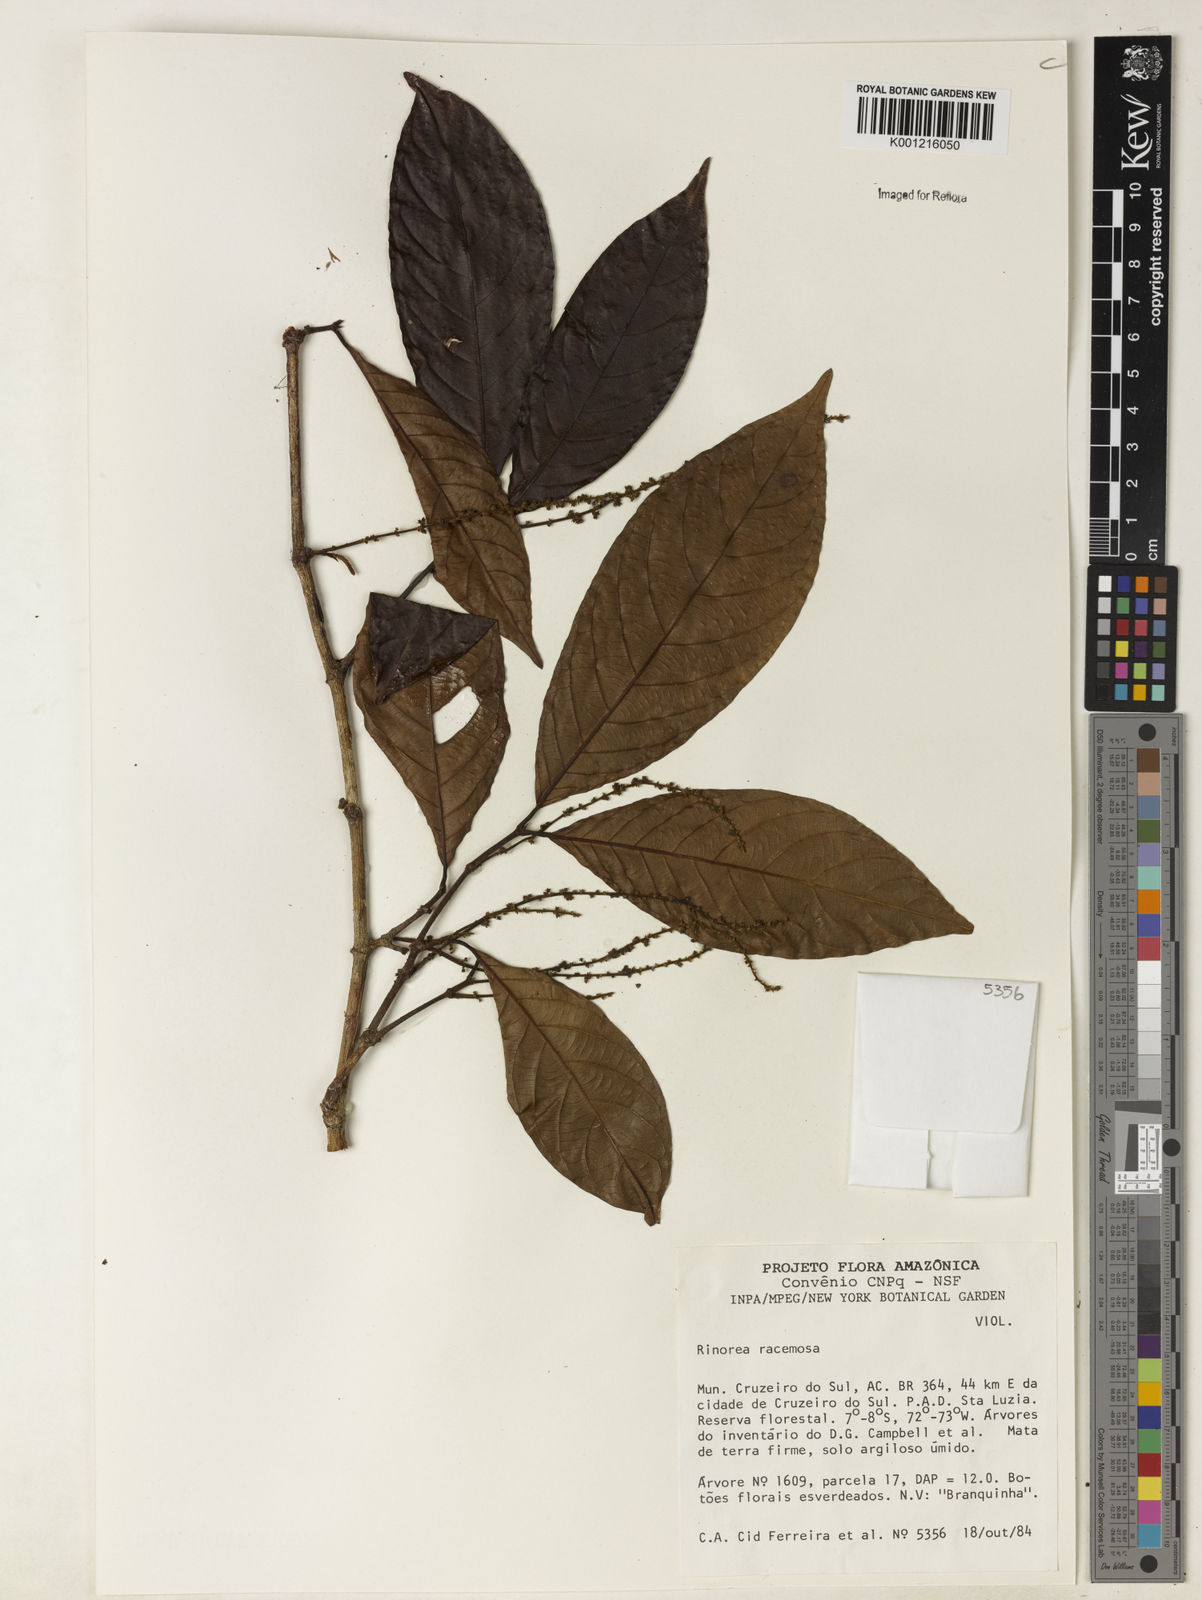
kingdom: Plantae
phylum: Tracheophyta
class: Magnoliopsida
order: Malpighiales
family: Violaceae
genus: Rinorea
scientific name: Rinorea racemosa
